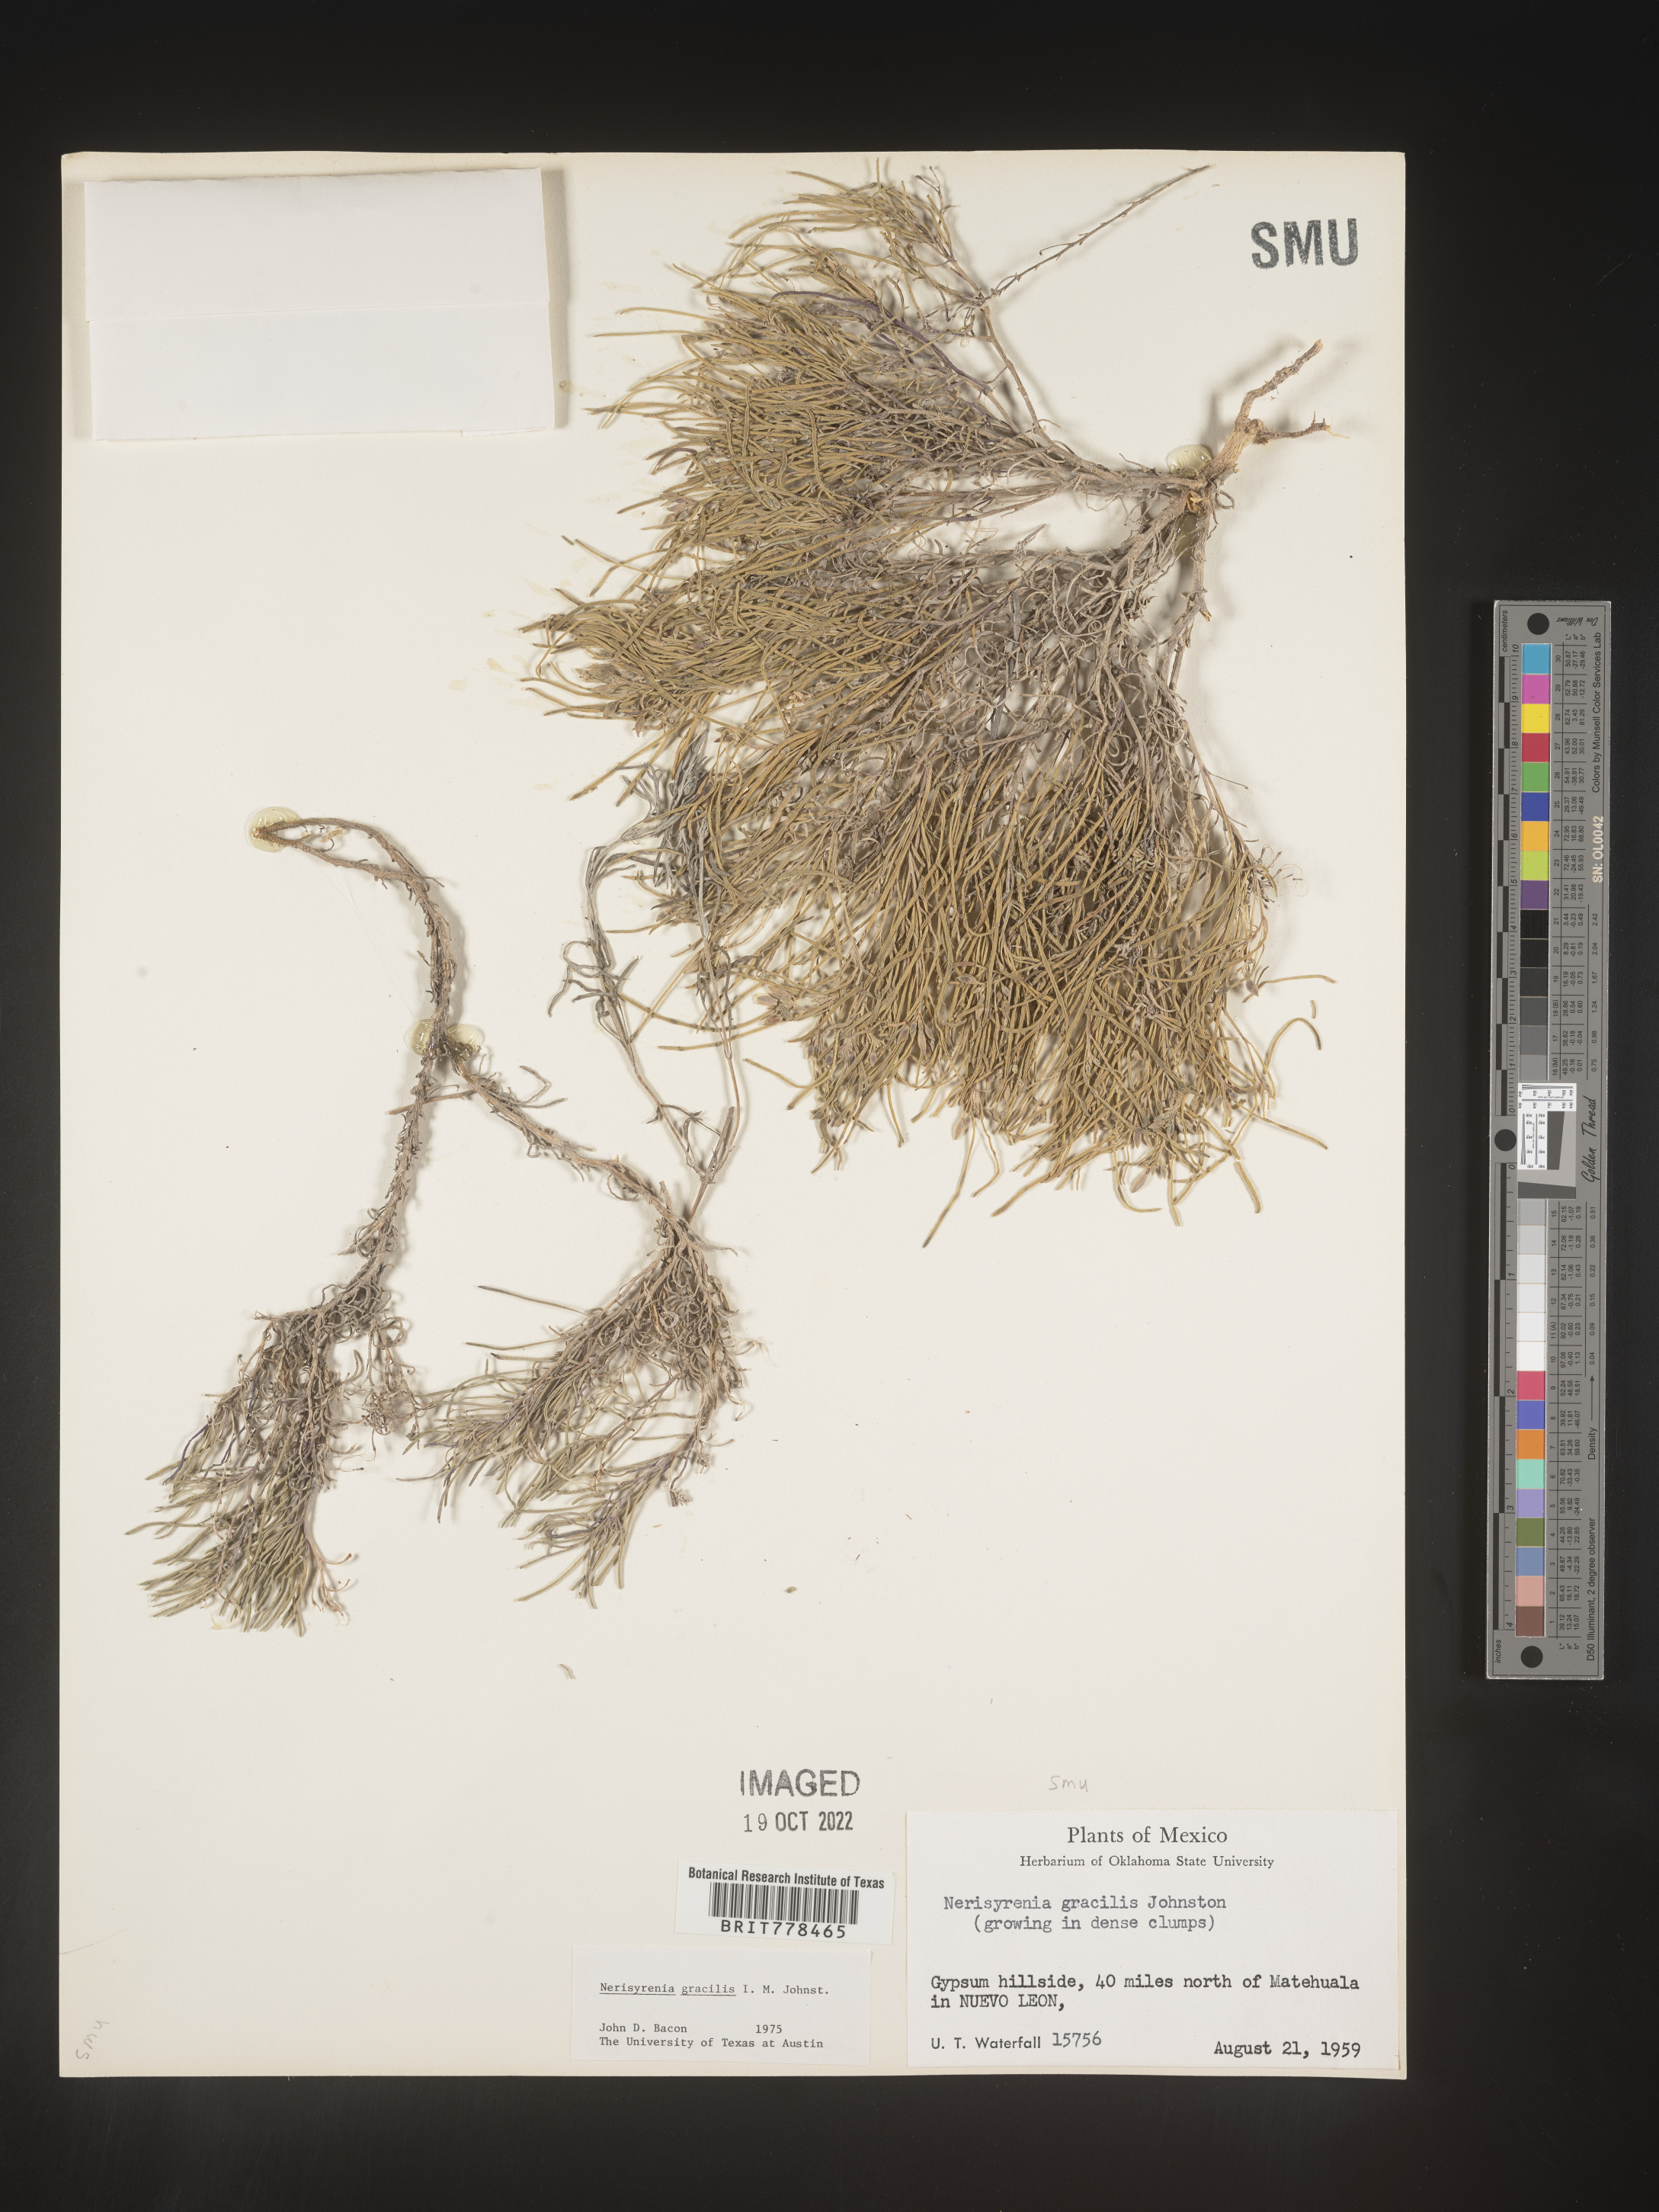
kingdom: Plantae
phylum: Tracheophyta
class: Magnoliopsida
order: Brassicales
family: Brassicaceae
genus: Nerisyrenia
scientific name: Nerisyrenia
